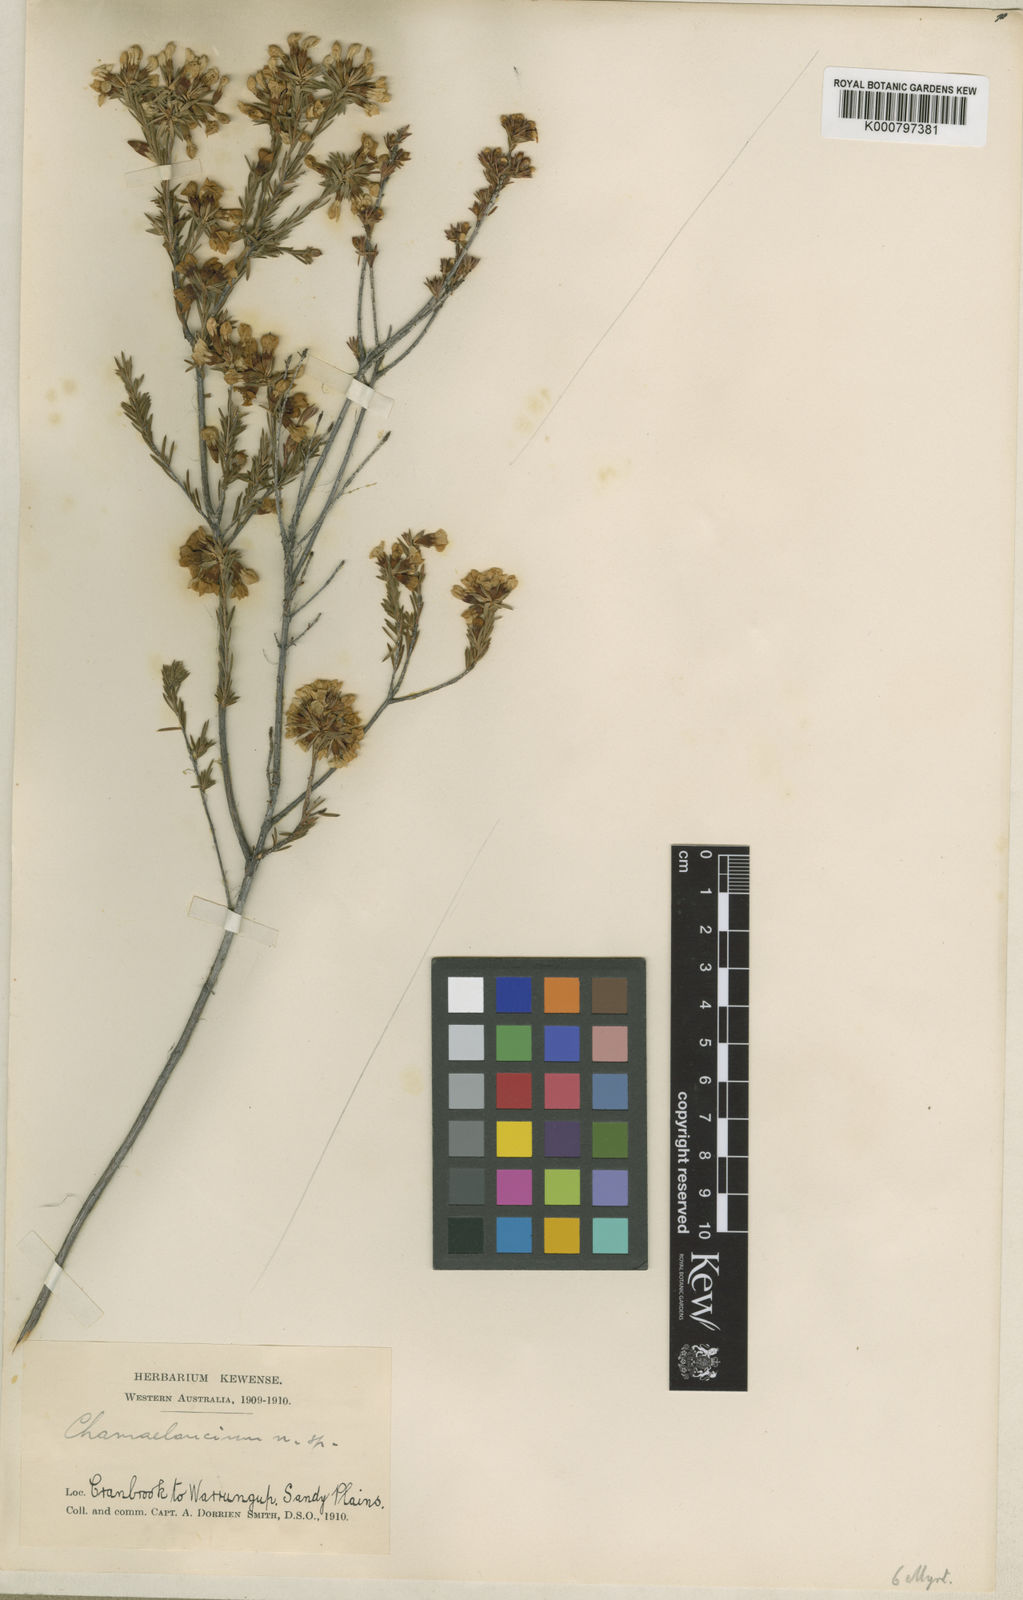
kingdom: Plantae
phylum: Tracheophyta
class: Magnoliopsida
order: Myrtales
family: Myrtaceae
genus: Chamelaucium
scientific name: Chamelaucium confertiflorum
